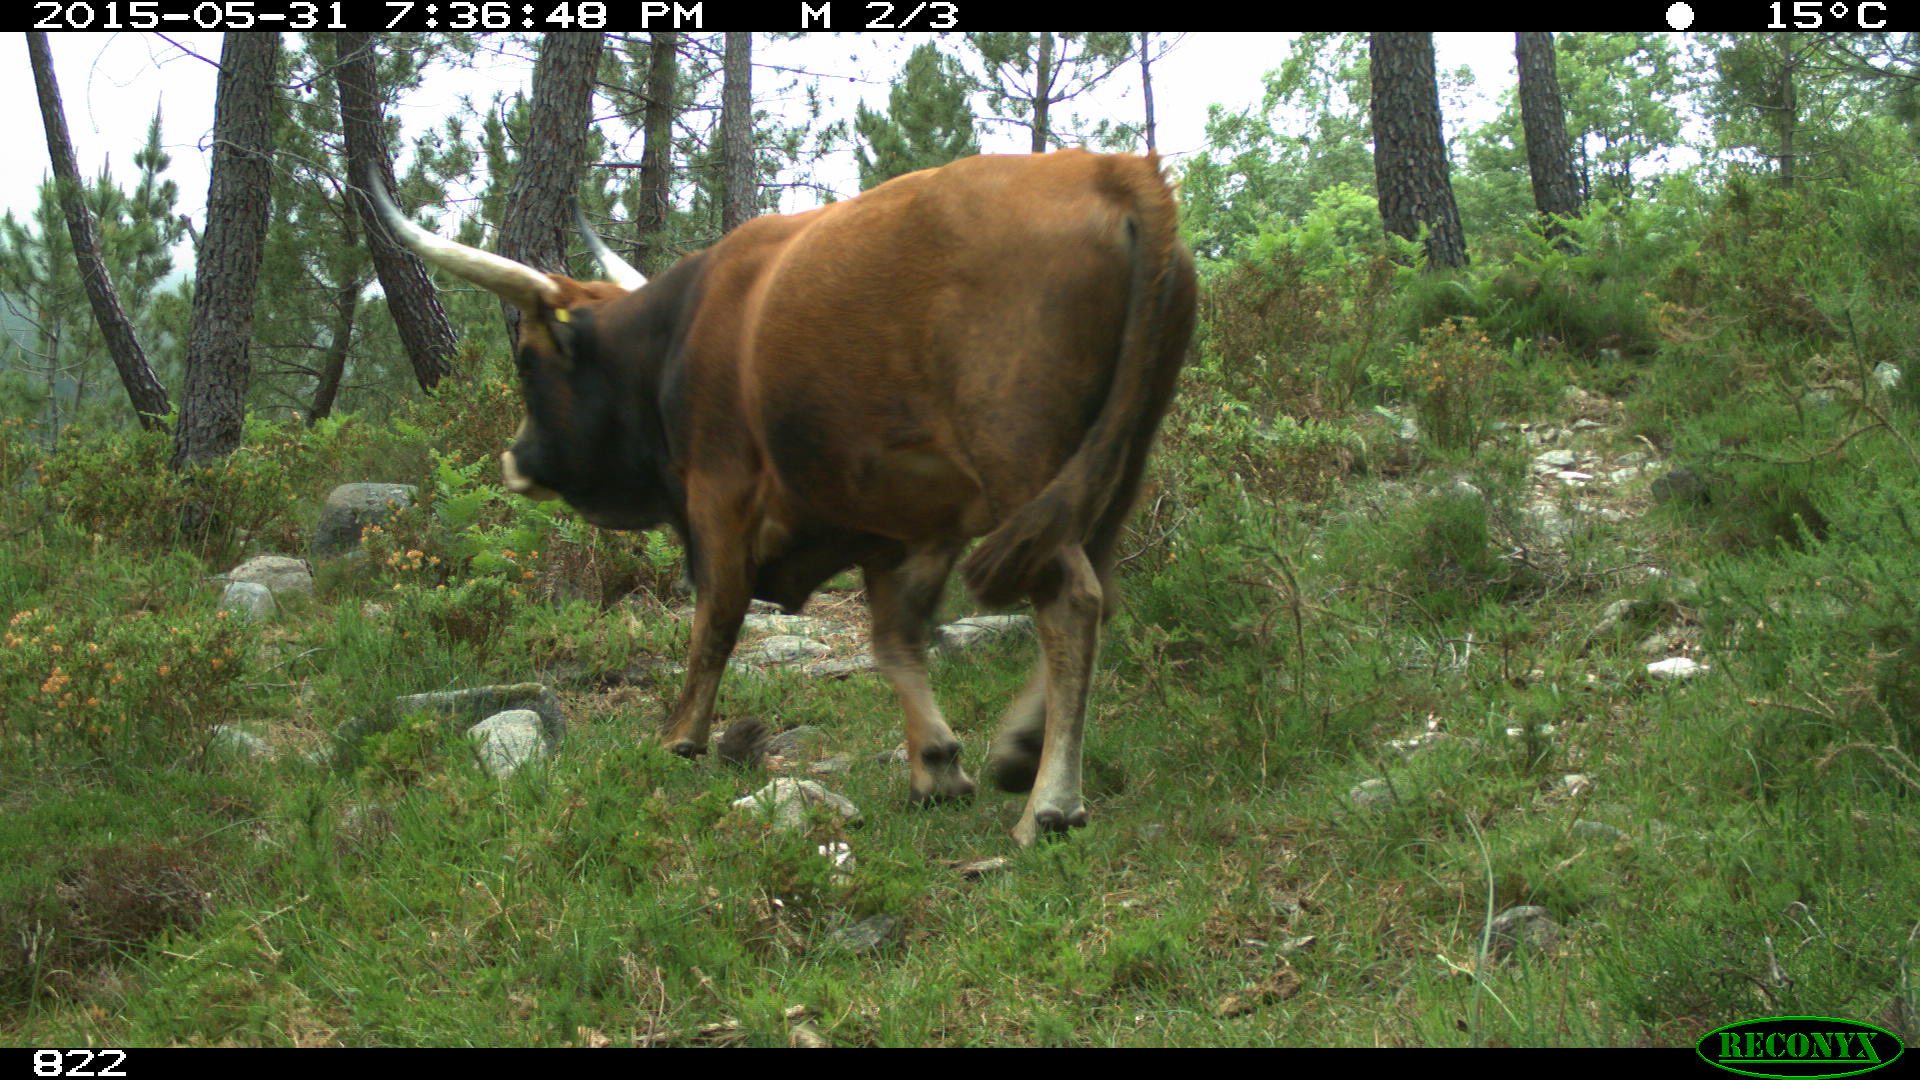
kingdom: Animalia
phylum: Chordata
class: Mammalia
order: Artiodactyla
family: Bovidae
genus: Bos
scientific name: Bos taurus
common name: Domesticated cattle
